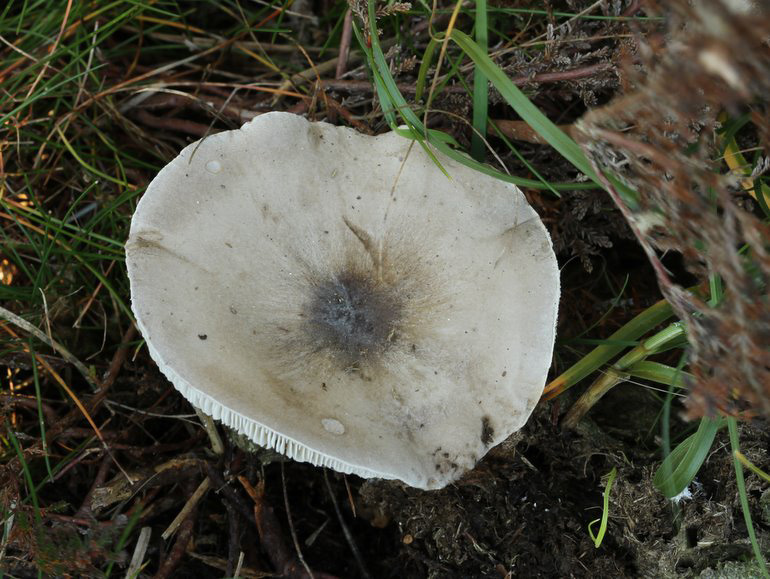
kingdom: Fungi
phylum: Basidiomycota
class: Agaricomycetes
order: Agaricales
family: Tricholomataceae
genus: Melanoleuca
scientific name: Melanoleuca
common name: munkehat
